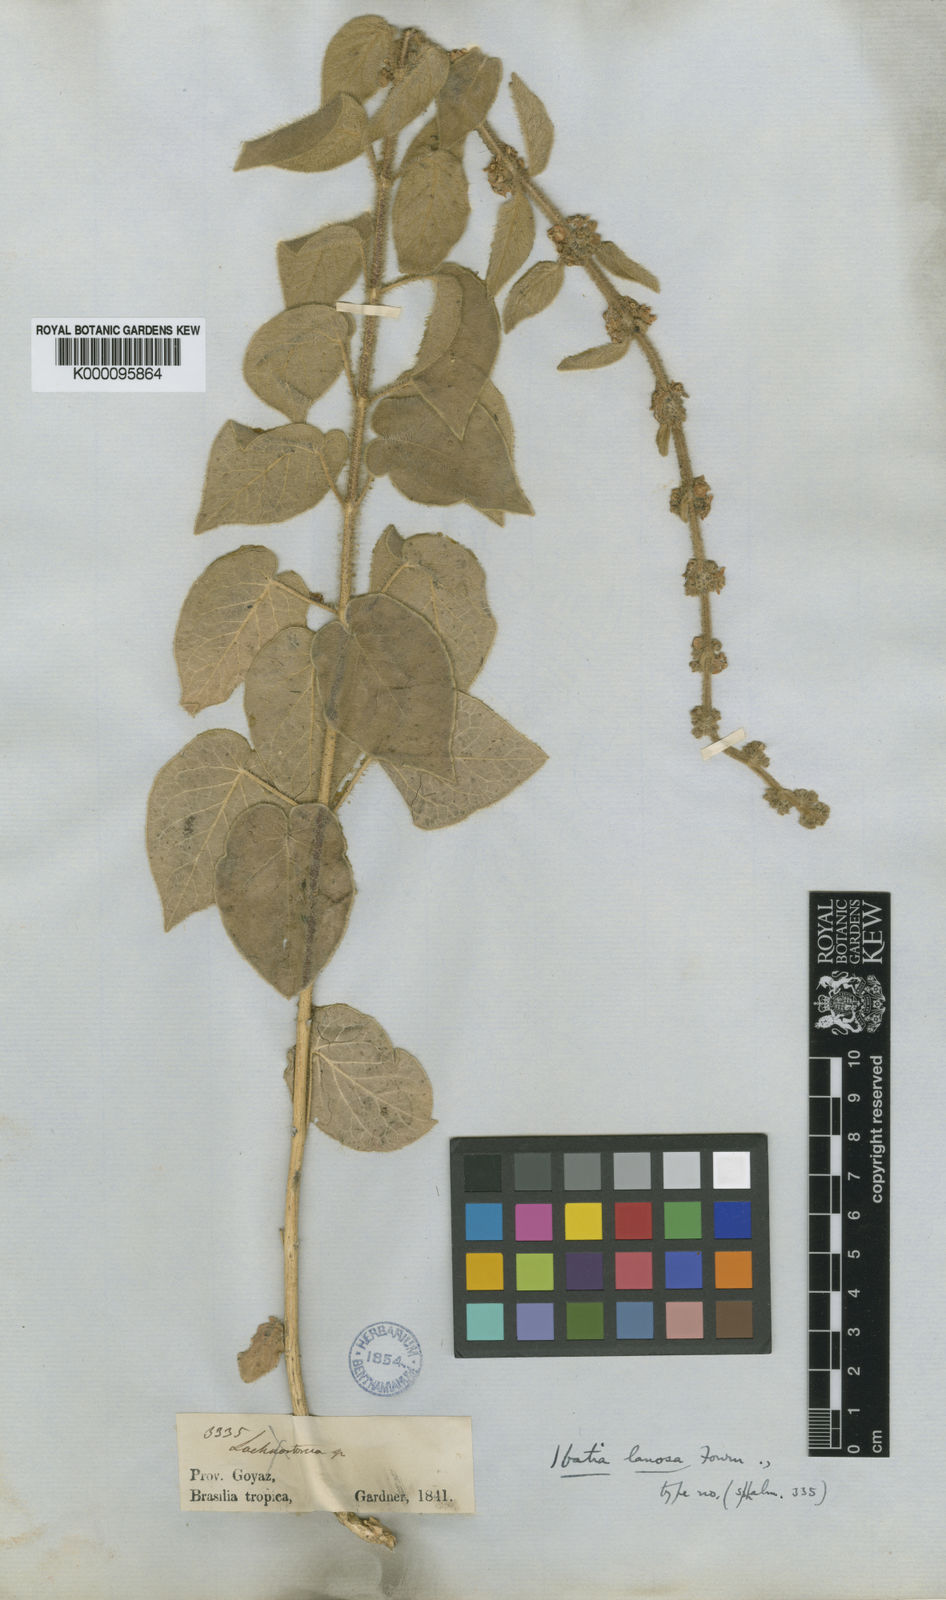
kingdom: Plantae
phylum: Tracheophyta
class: Magnoliopsida
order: Gentianales
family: Apocynaceae
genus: Ibatia
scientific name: Ibatia lanosa
